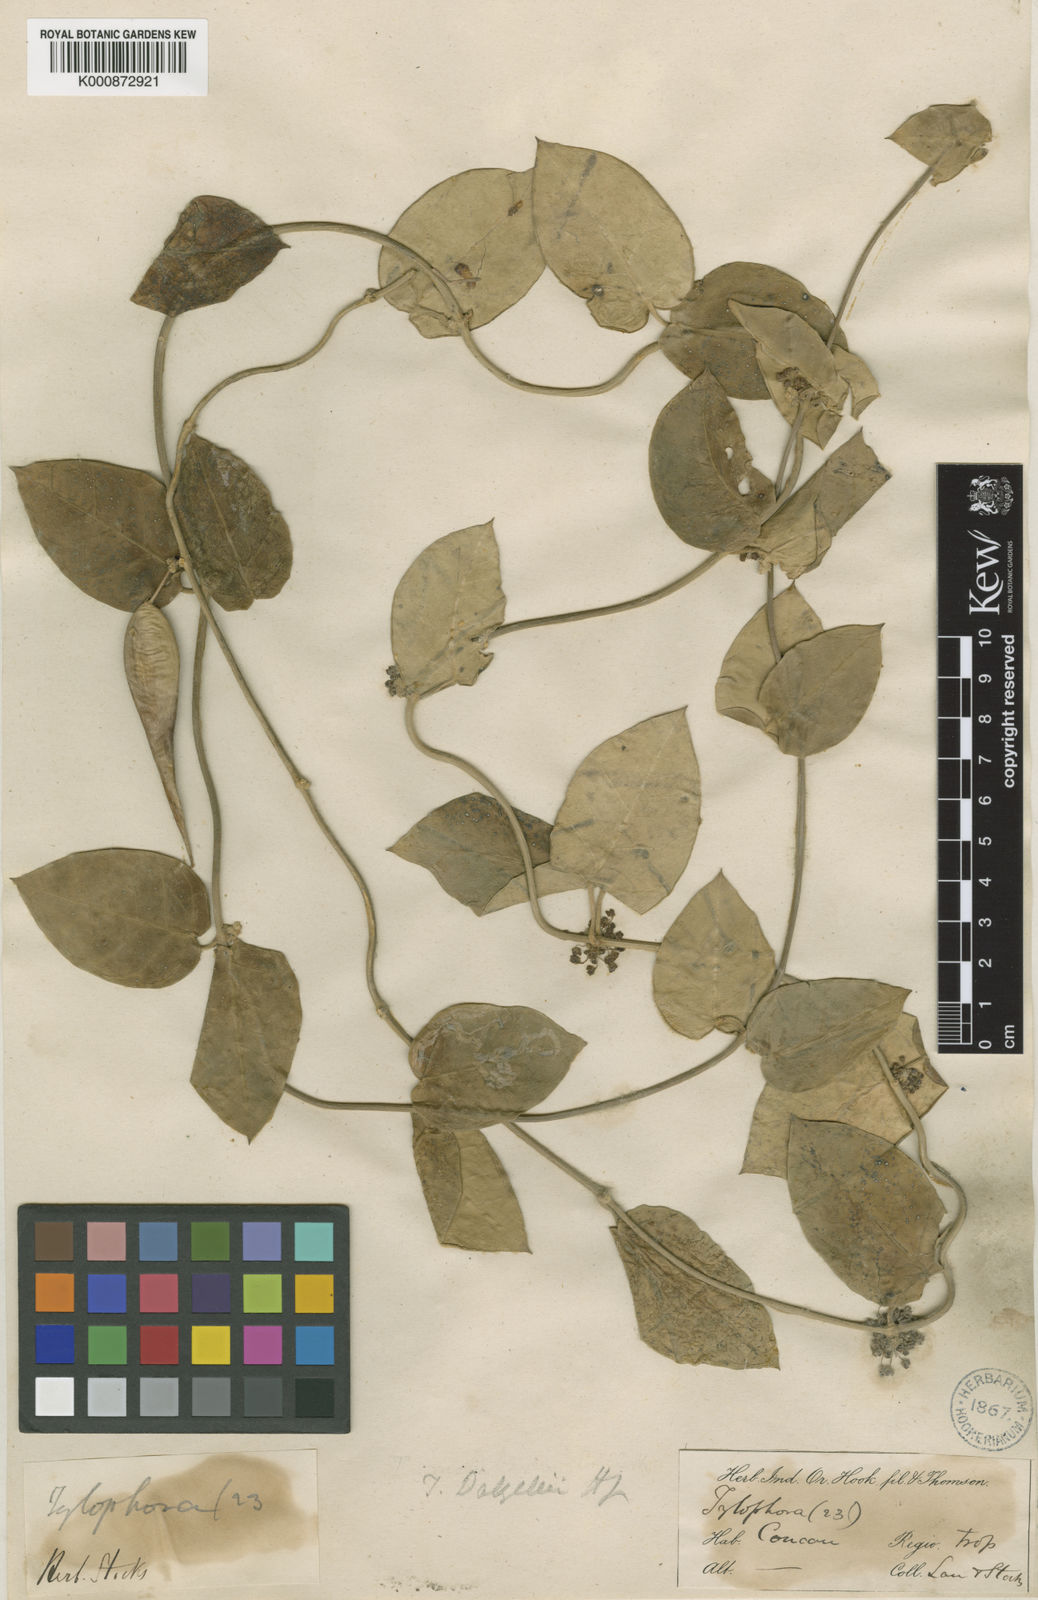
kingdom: Plantae
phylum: Tracheophyta
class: Magnoliopsida
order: Gentianales
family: Apocynaceae
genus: Vincetoxicum
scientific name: Vincetoxicum dalzellii
